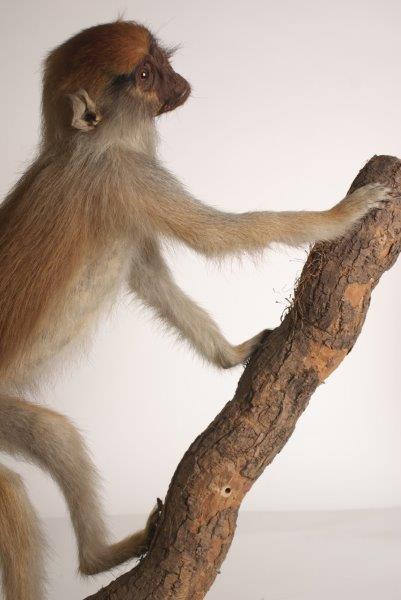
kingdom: Animalia
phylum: Chordata
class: Mammalia
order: Primates
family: Cercopithecidae
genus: Erythrocebus
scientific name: Erythrocebus patas
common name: Patas Monkey
